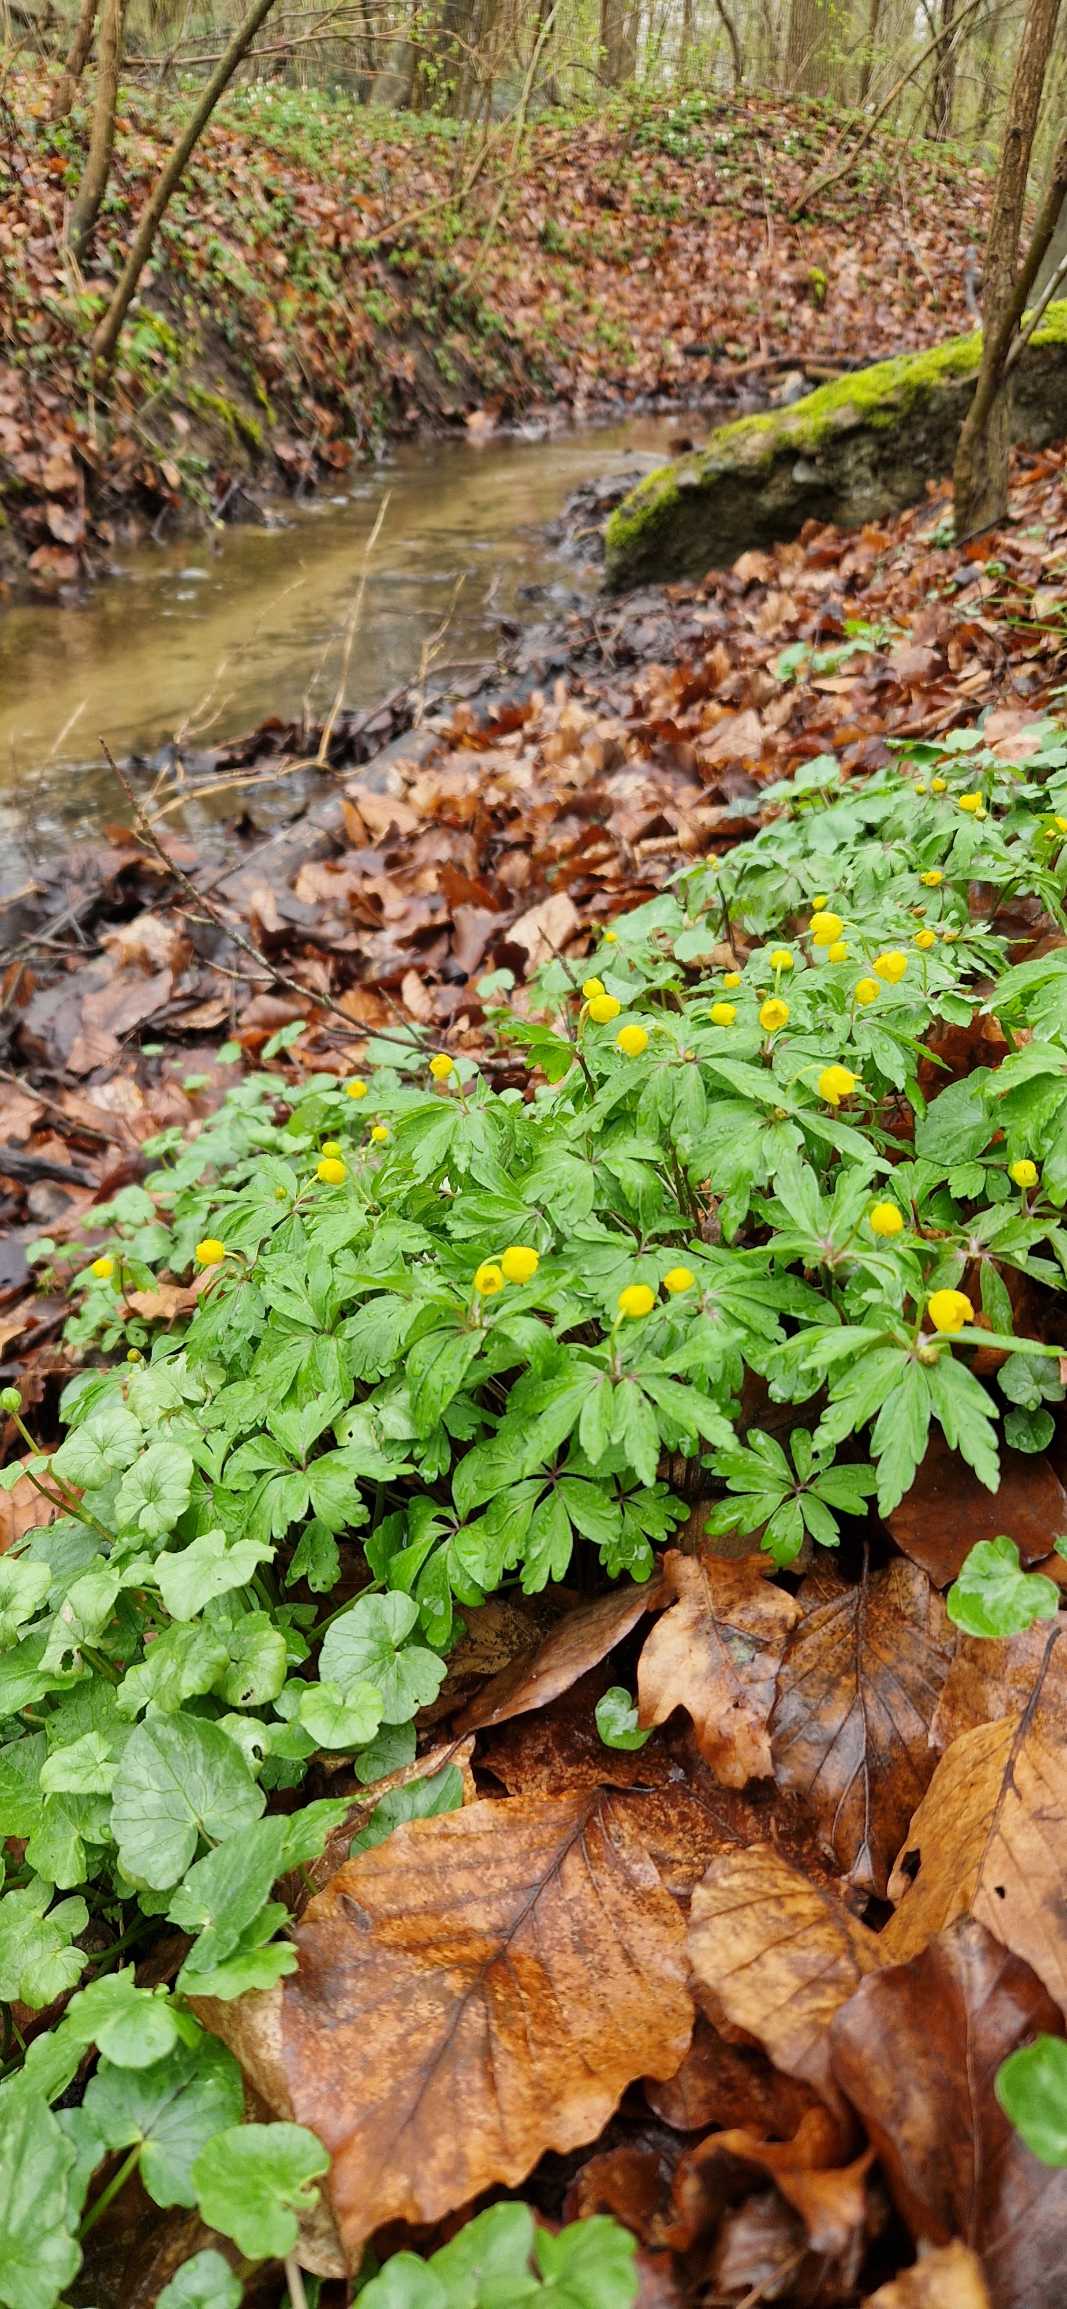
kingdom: Plantae
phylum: Tracheophyta
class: Magnoliopsida
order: Ranunculales
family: Ranunculaceae
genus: Anemone
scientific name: Anemone ranunculoides
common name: Gul anemone
